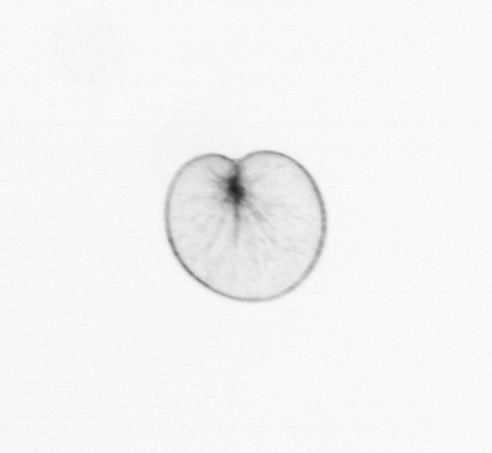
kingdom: Chromista
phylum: Myzozoa
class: Dinophyceae
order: Noctilucales
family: Noctilucaceae
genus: Noctiluca
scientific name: Noctiluca scintillans
